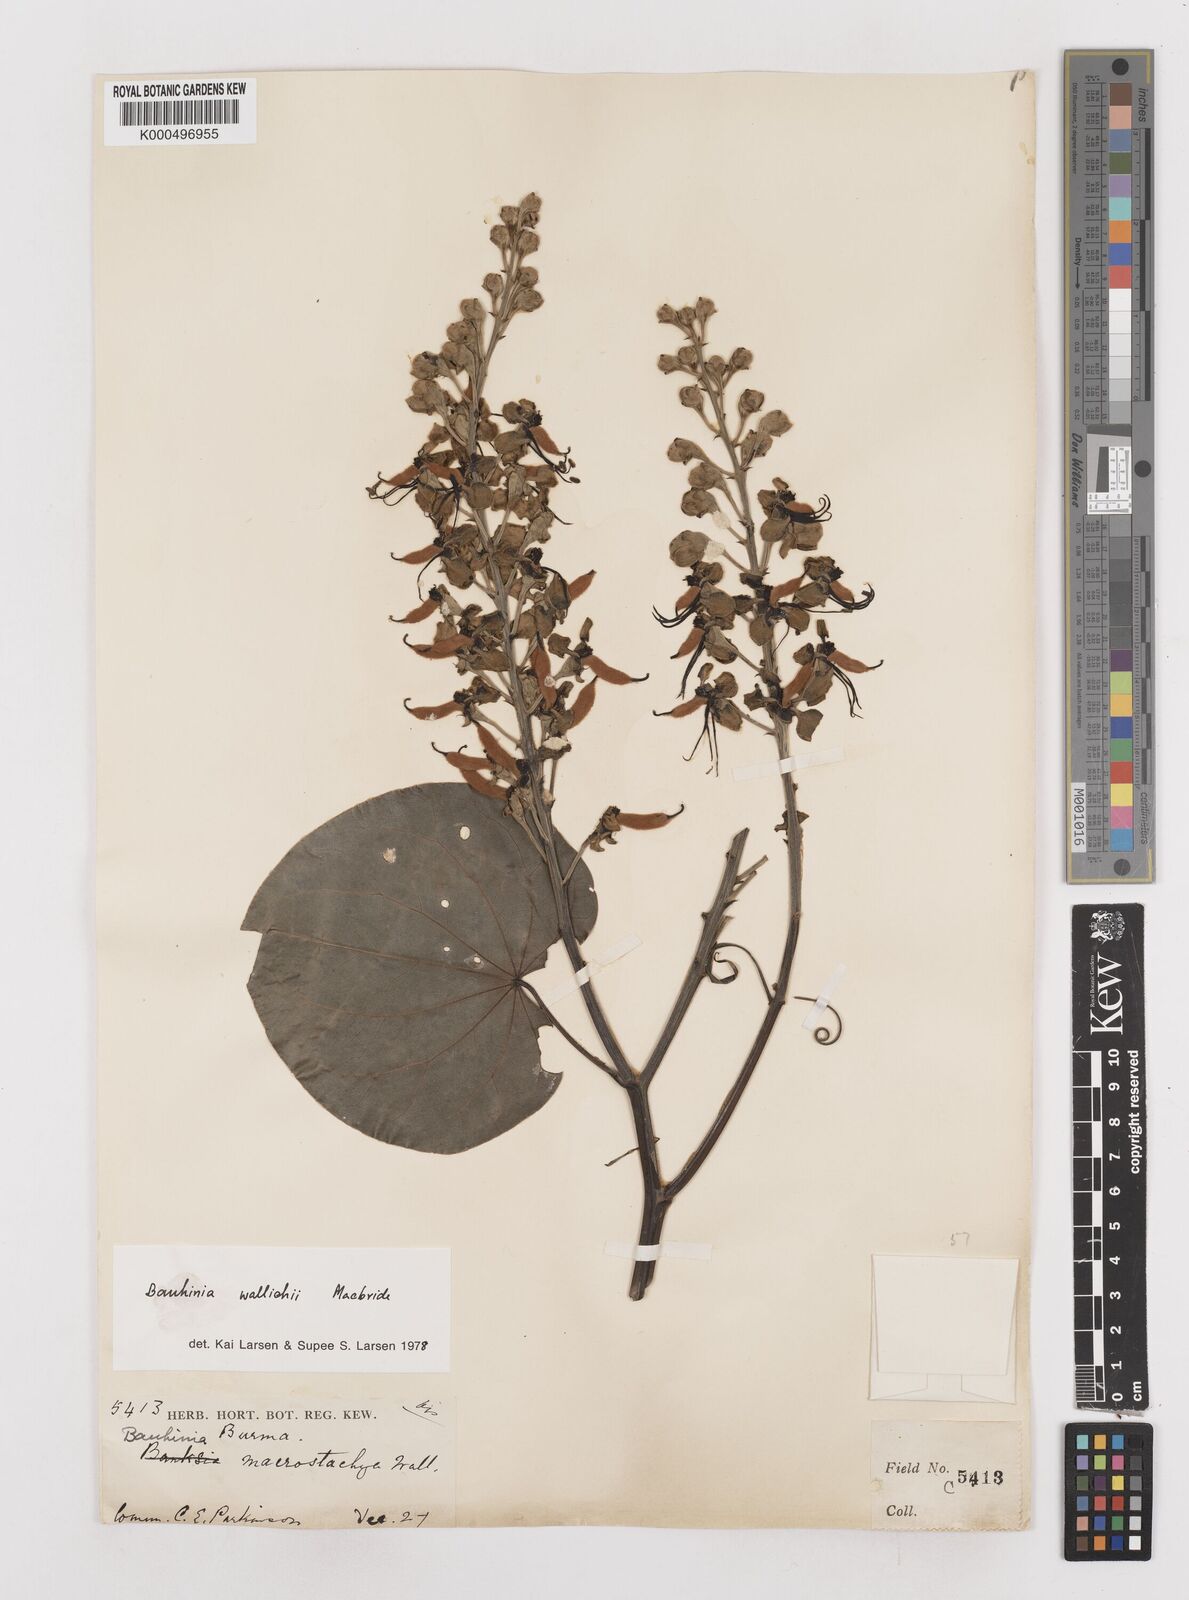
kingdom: Plantae
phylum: Tracheophyta
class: Magnoliopsida
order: Fabales
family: Fabaceae
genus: Phanera
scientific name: Phanera macrostachya
